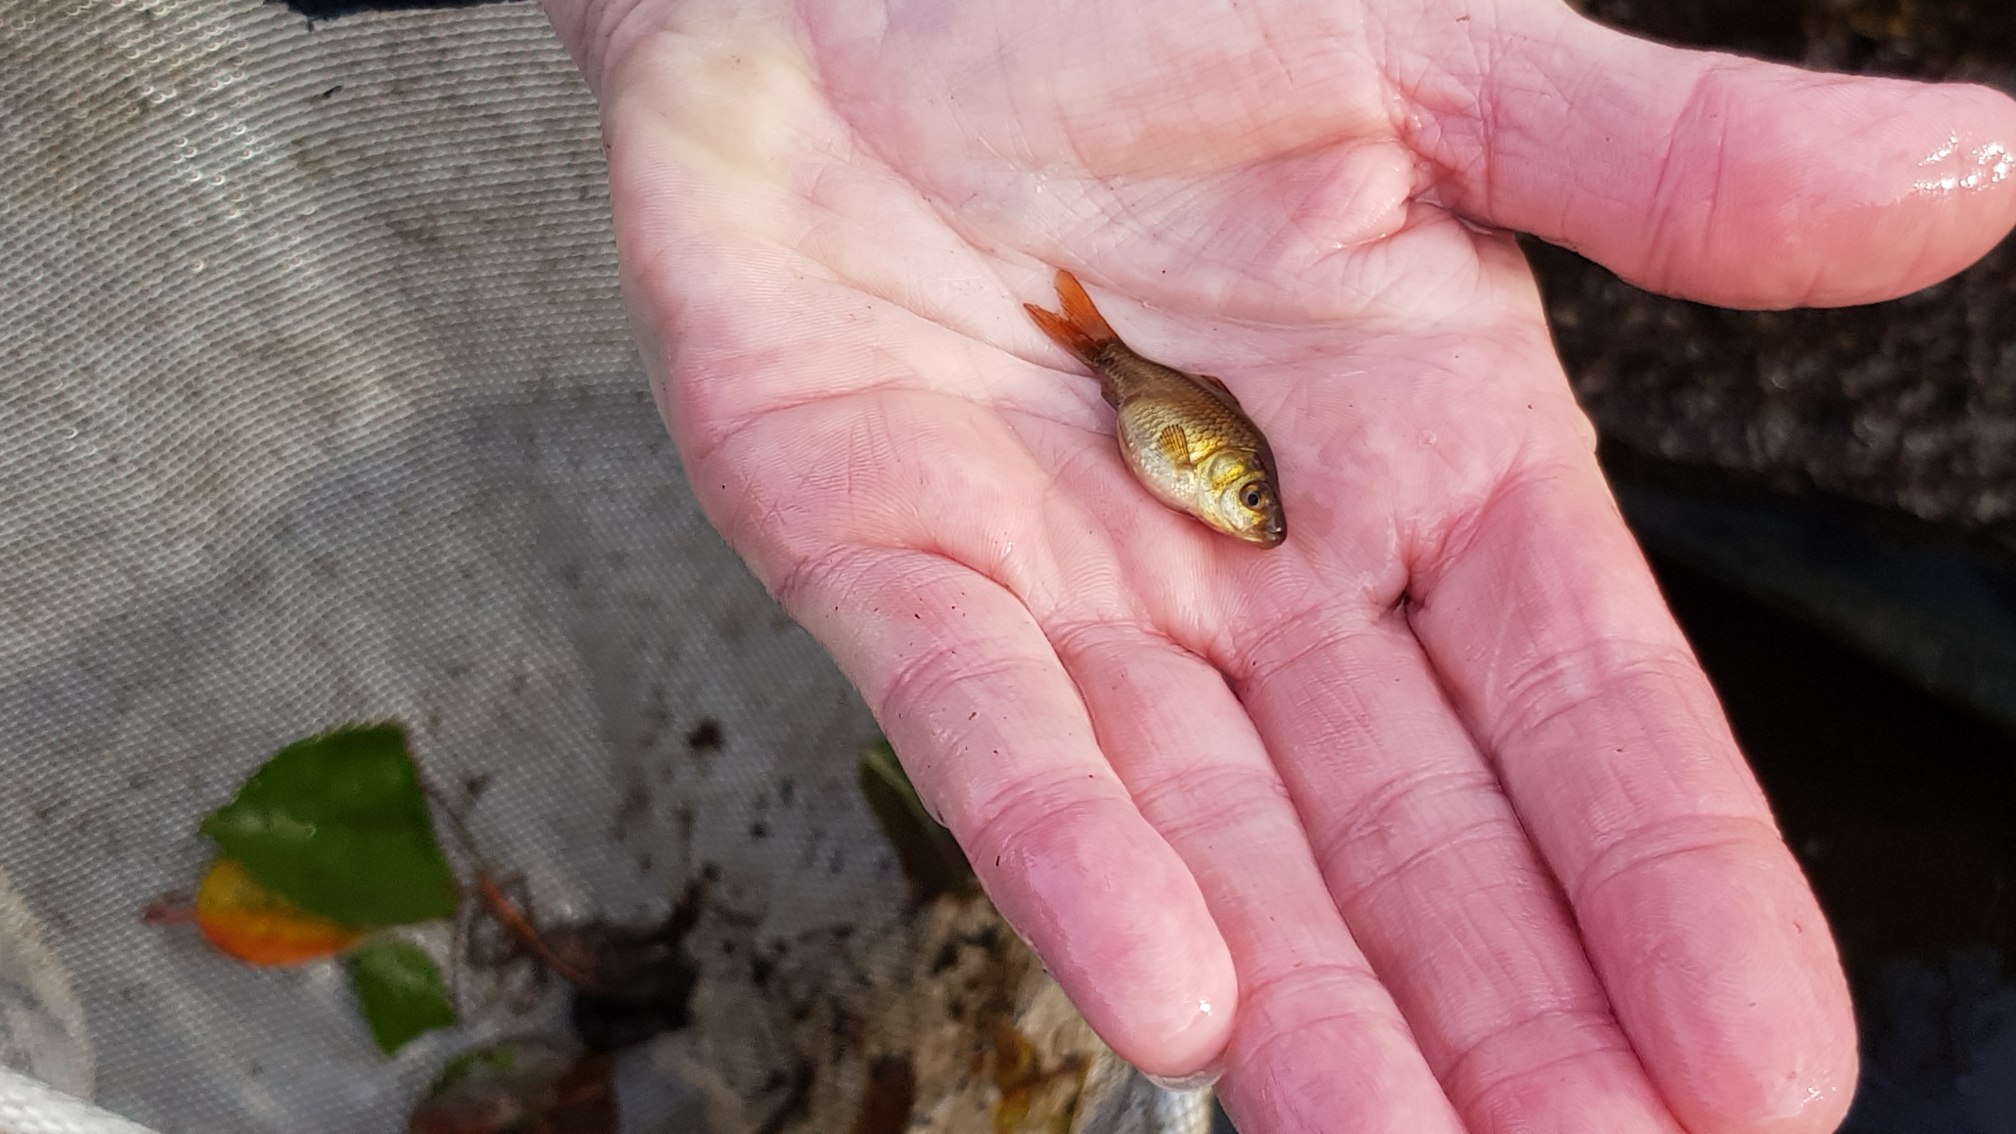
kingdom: Animalia
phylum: Chordata
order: Cypriniformes
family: Cyprinidae
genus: Carassius
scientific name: Carassius auratus
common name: Sølvkarusse
